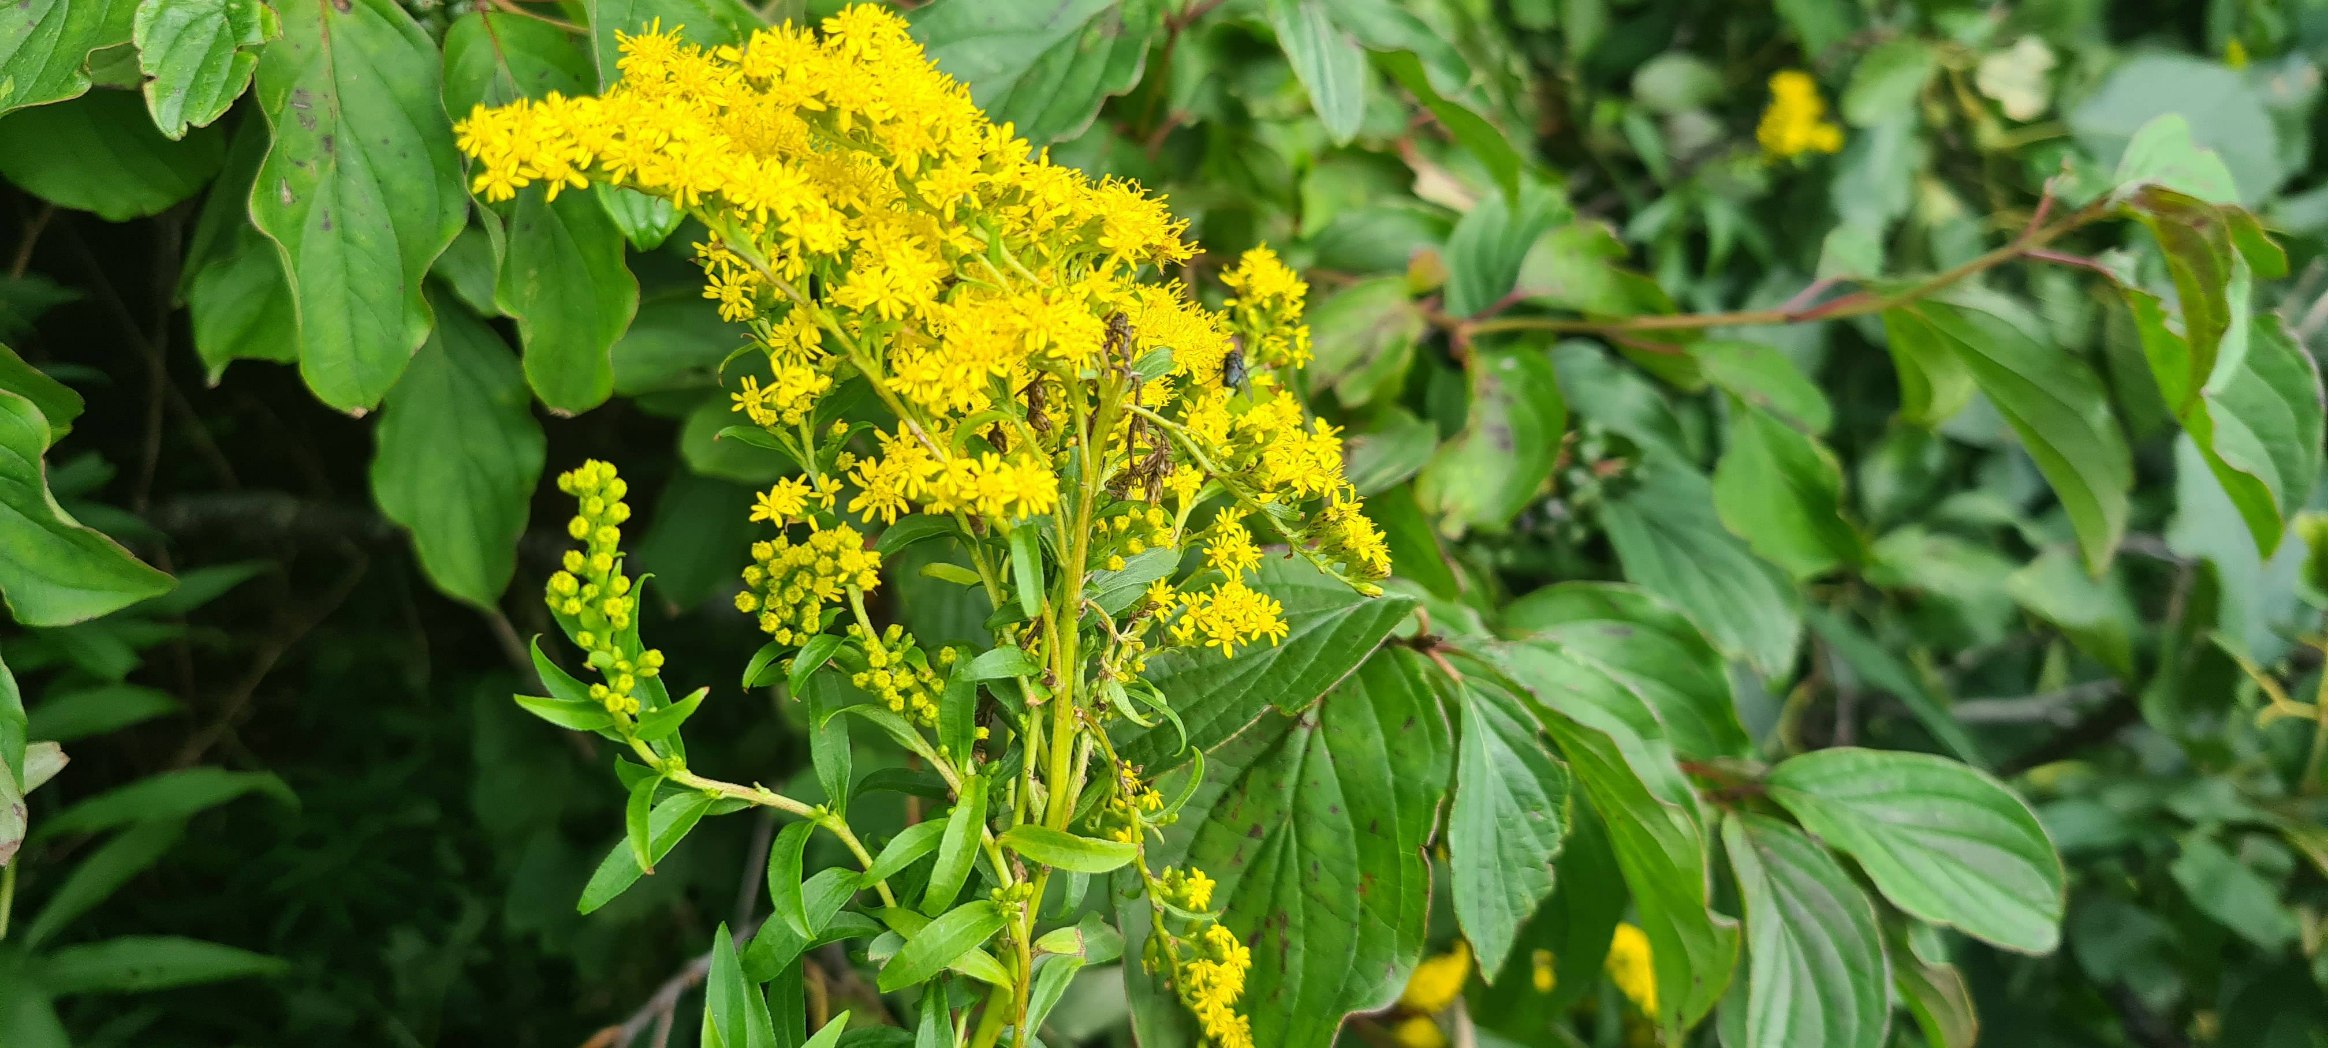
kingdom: Plantae
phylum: Tracheophyta
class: Magnoliopsida
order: Asterales
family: Asteraceae
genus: Solidago
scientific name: Solidago canadensis
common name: Kanadisk gyldenris
